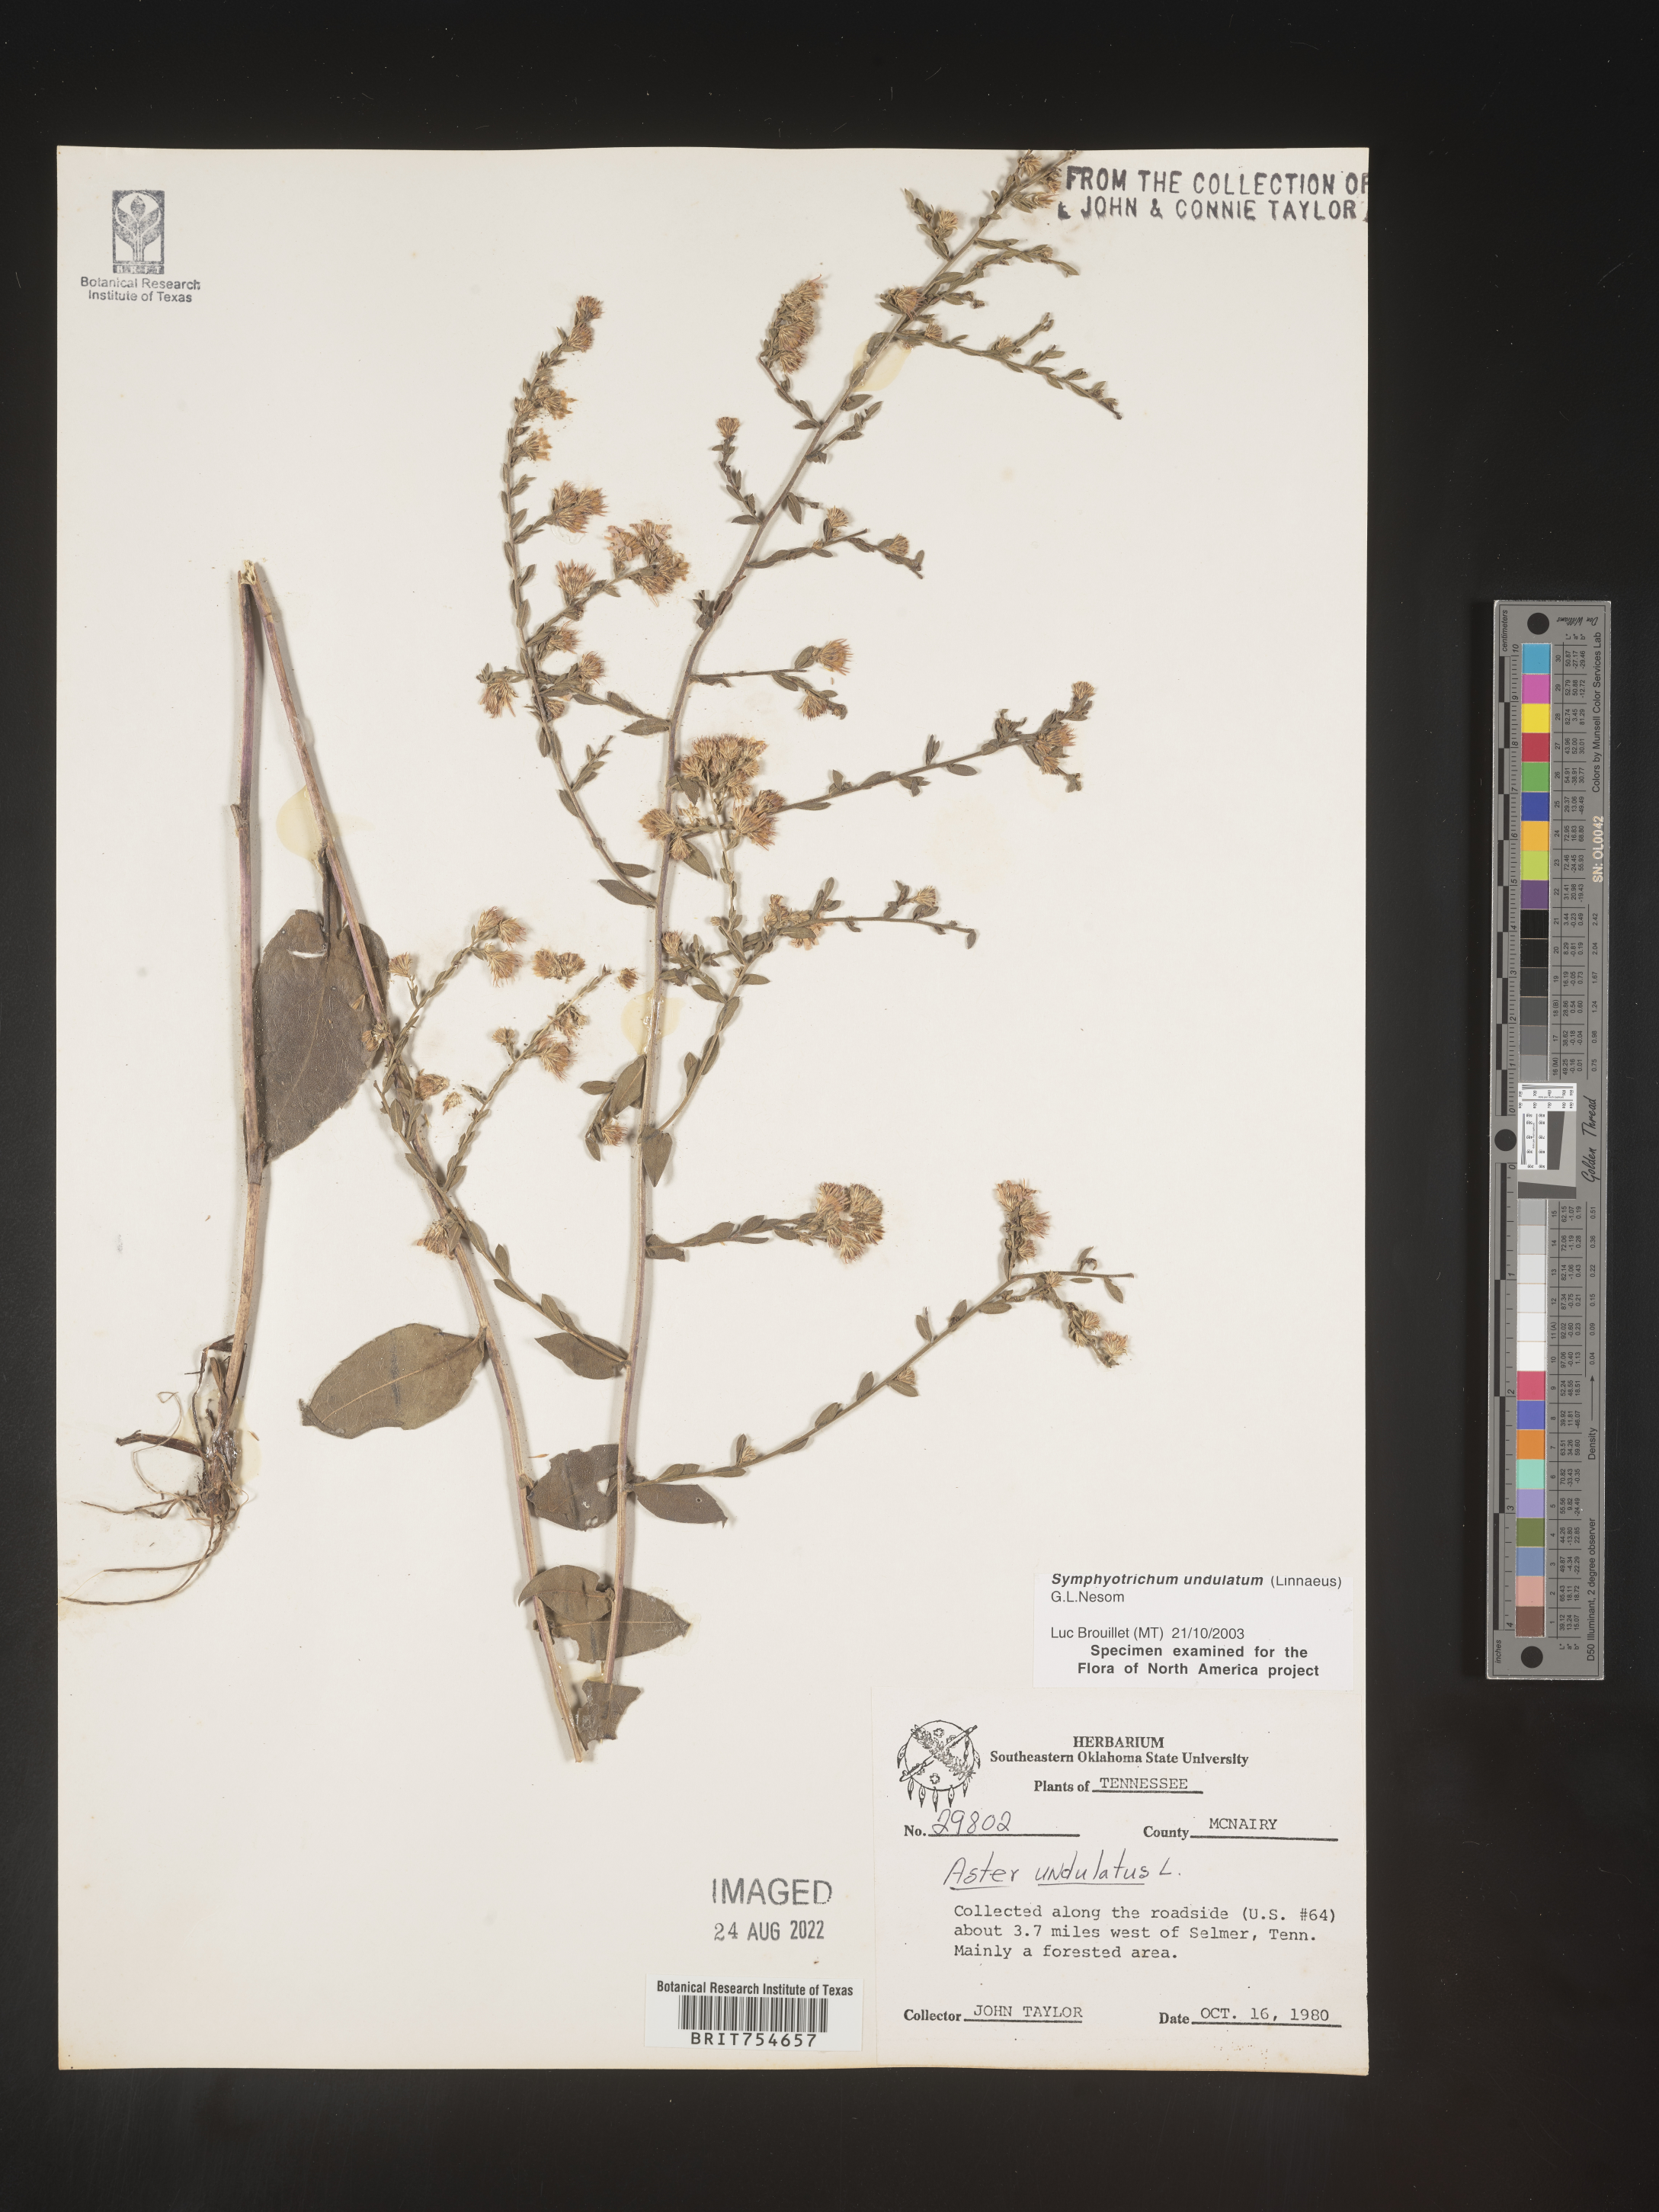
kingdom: Plantae
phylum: Tracheophyta
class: Magnoliopsida
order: Asterales
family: Asteraceae
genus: Symphyotrichum
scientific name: Symphyotrichum undulatum
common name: Clasping heart-leaf aster
